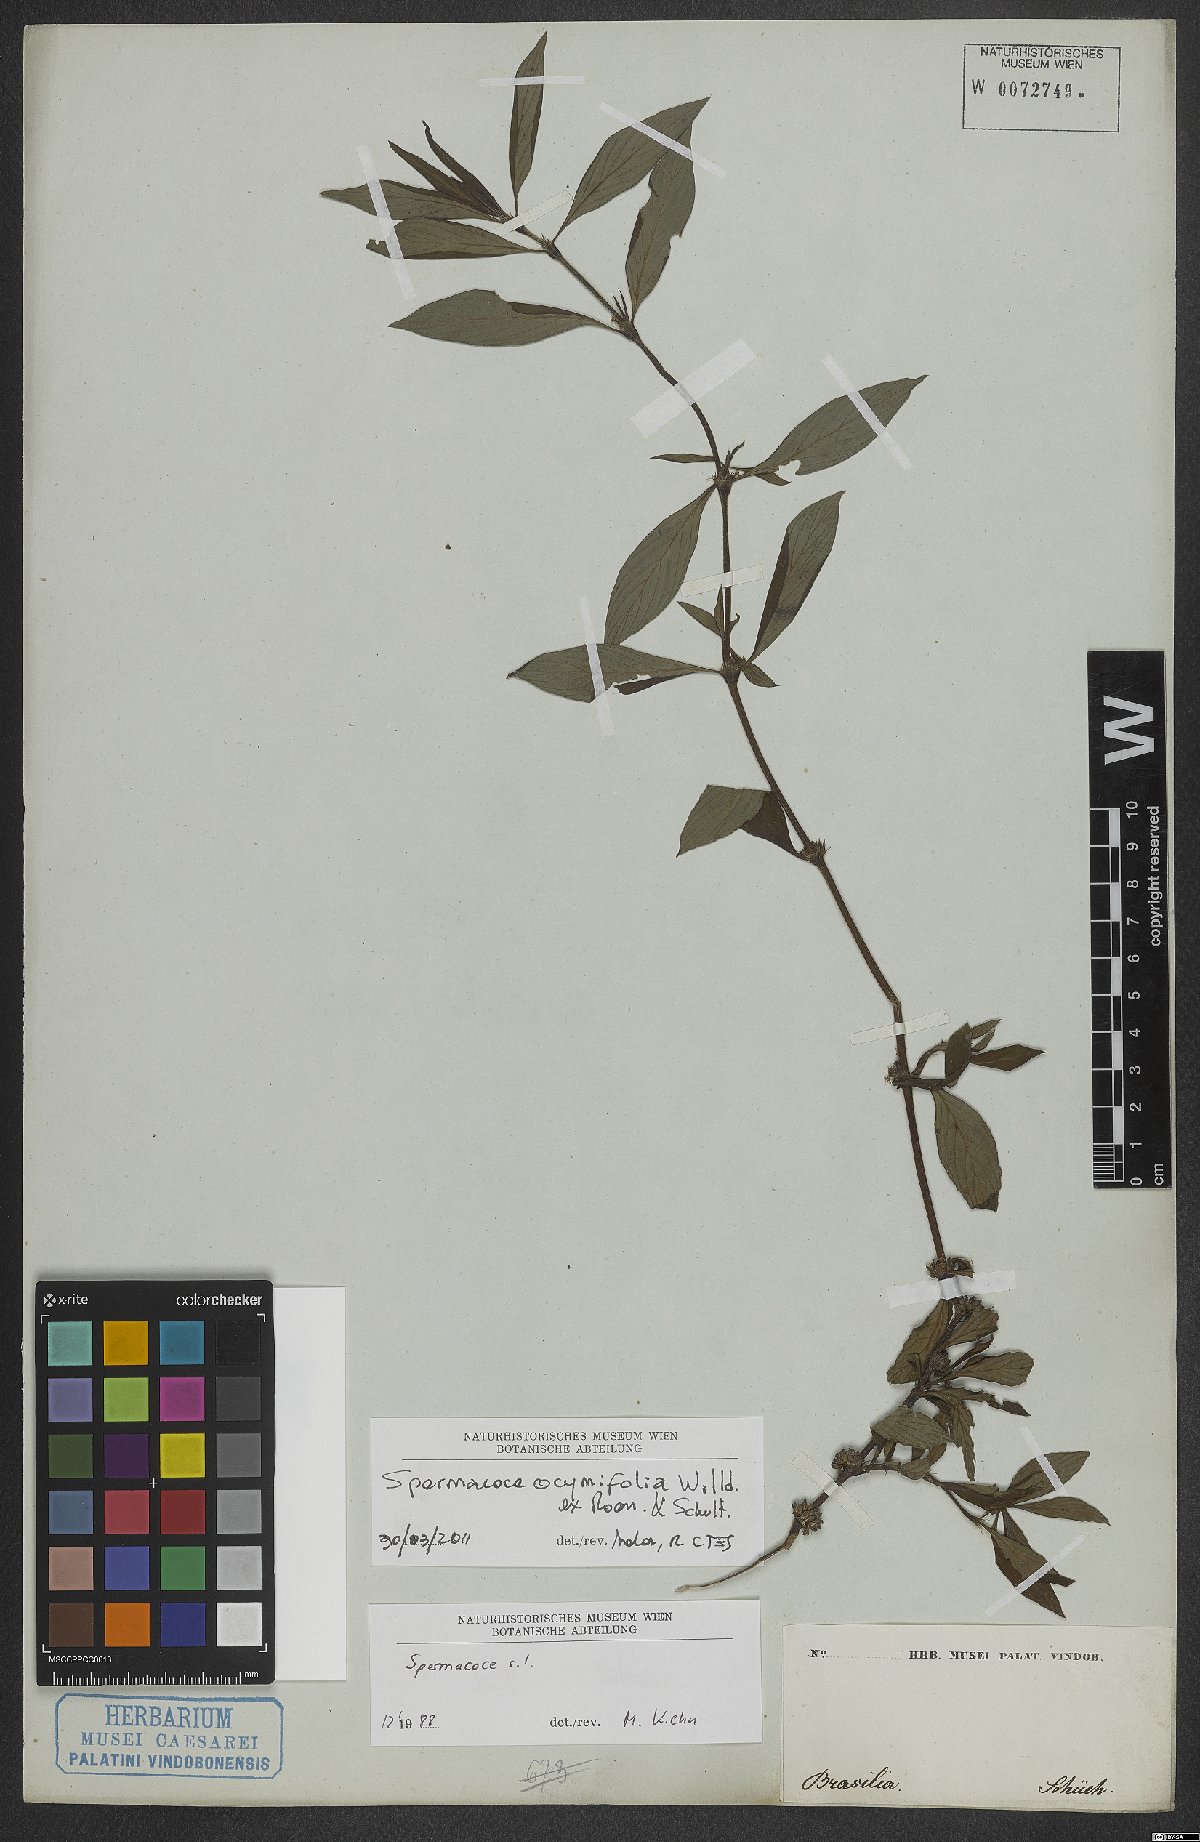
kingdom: Plantae
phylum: Tracheophyta
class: Magnoliopsida
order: Gentianales
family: Rubiaceae
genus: Spermacoce
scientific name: Spermacoce ocymifolia
